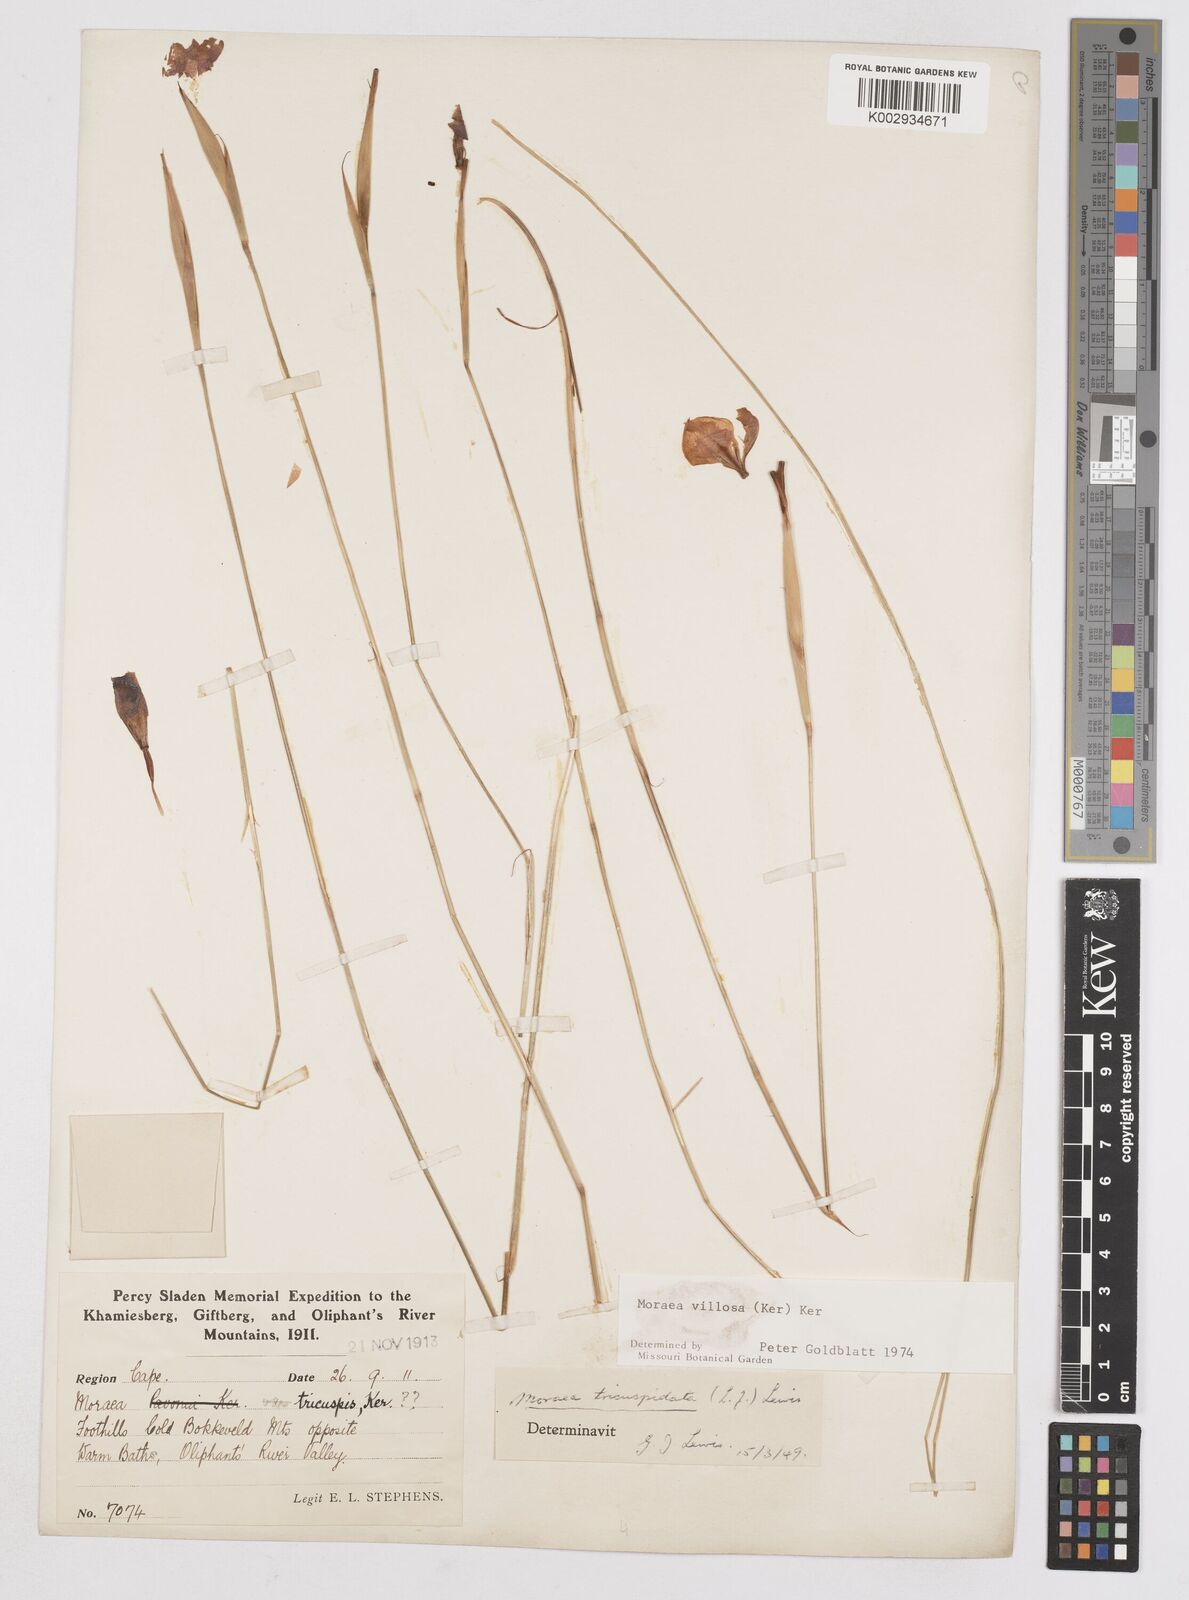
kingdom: Plantae
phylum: Tracheophyta
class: Liliopsida
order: Asparagales
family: Iridaceae
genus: Moraea
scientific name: Moraea villosa
